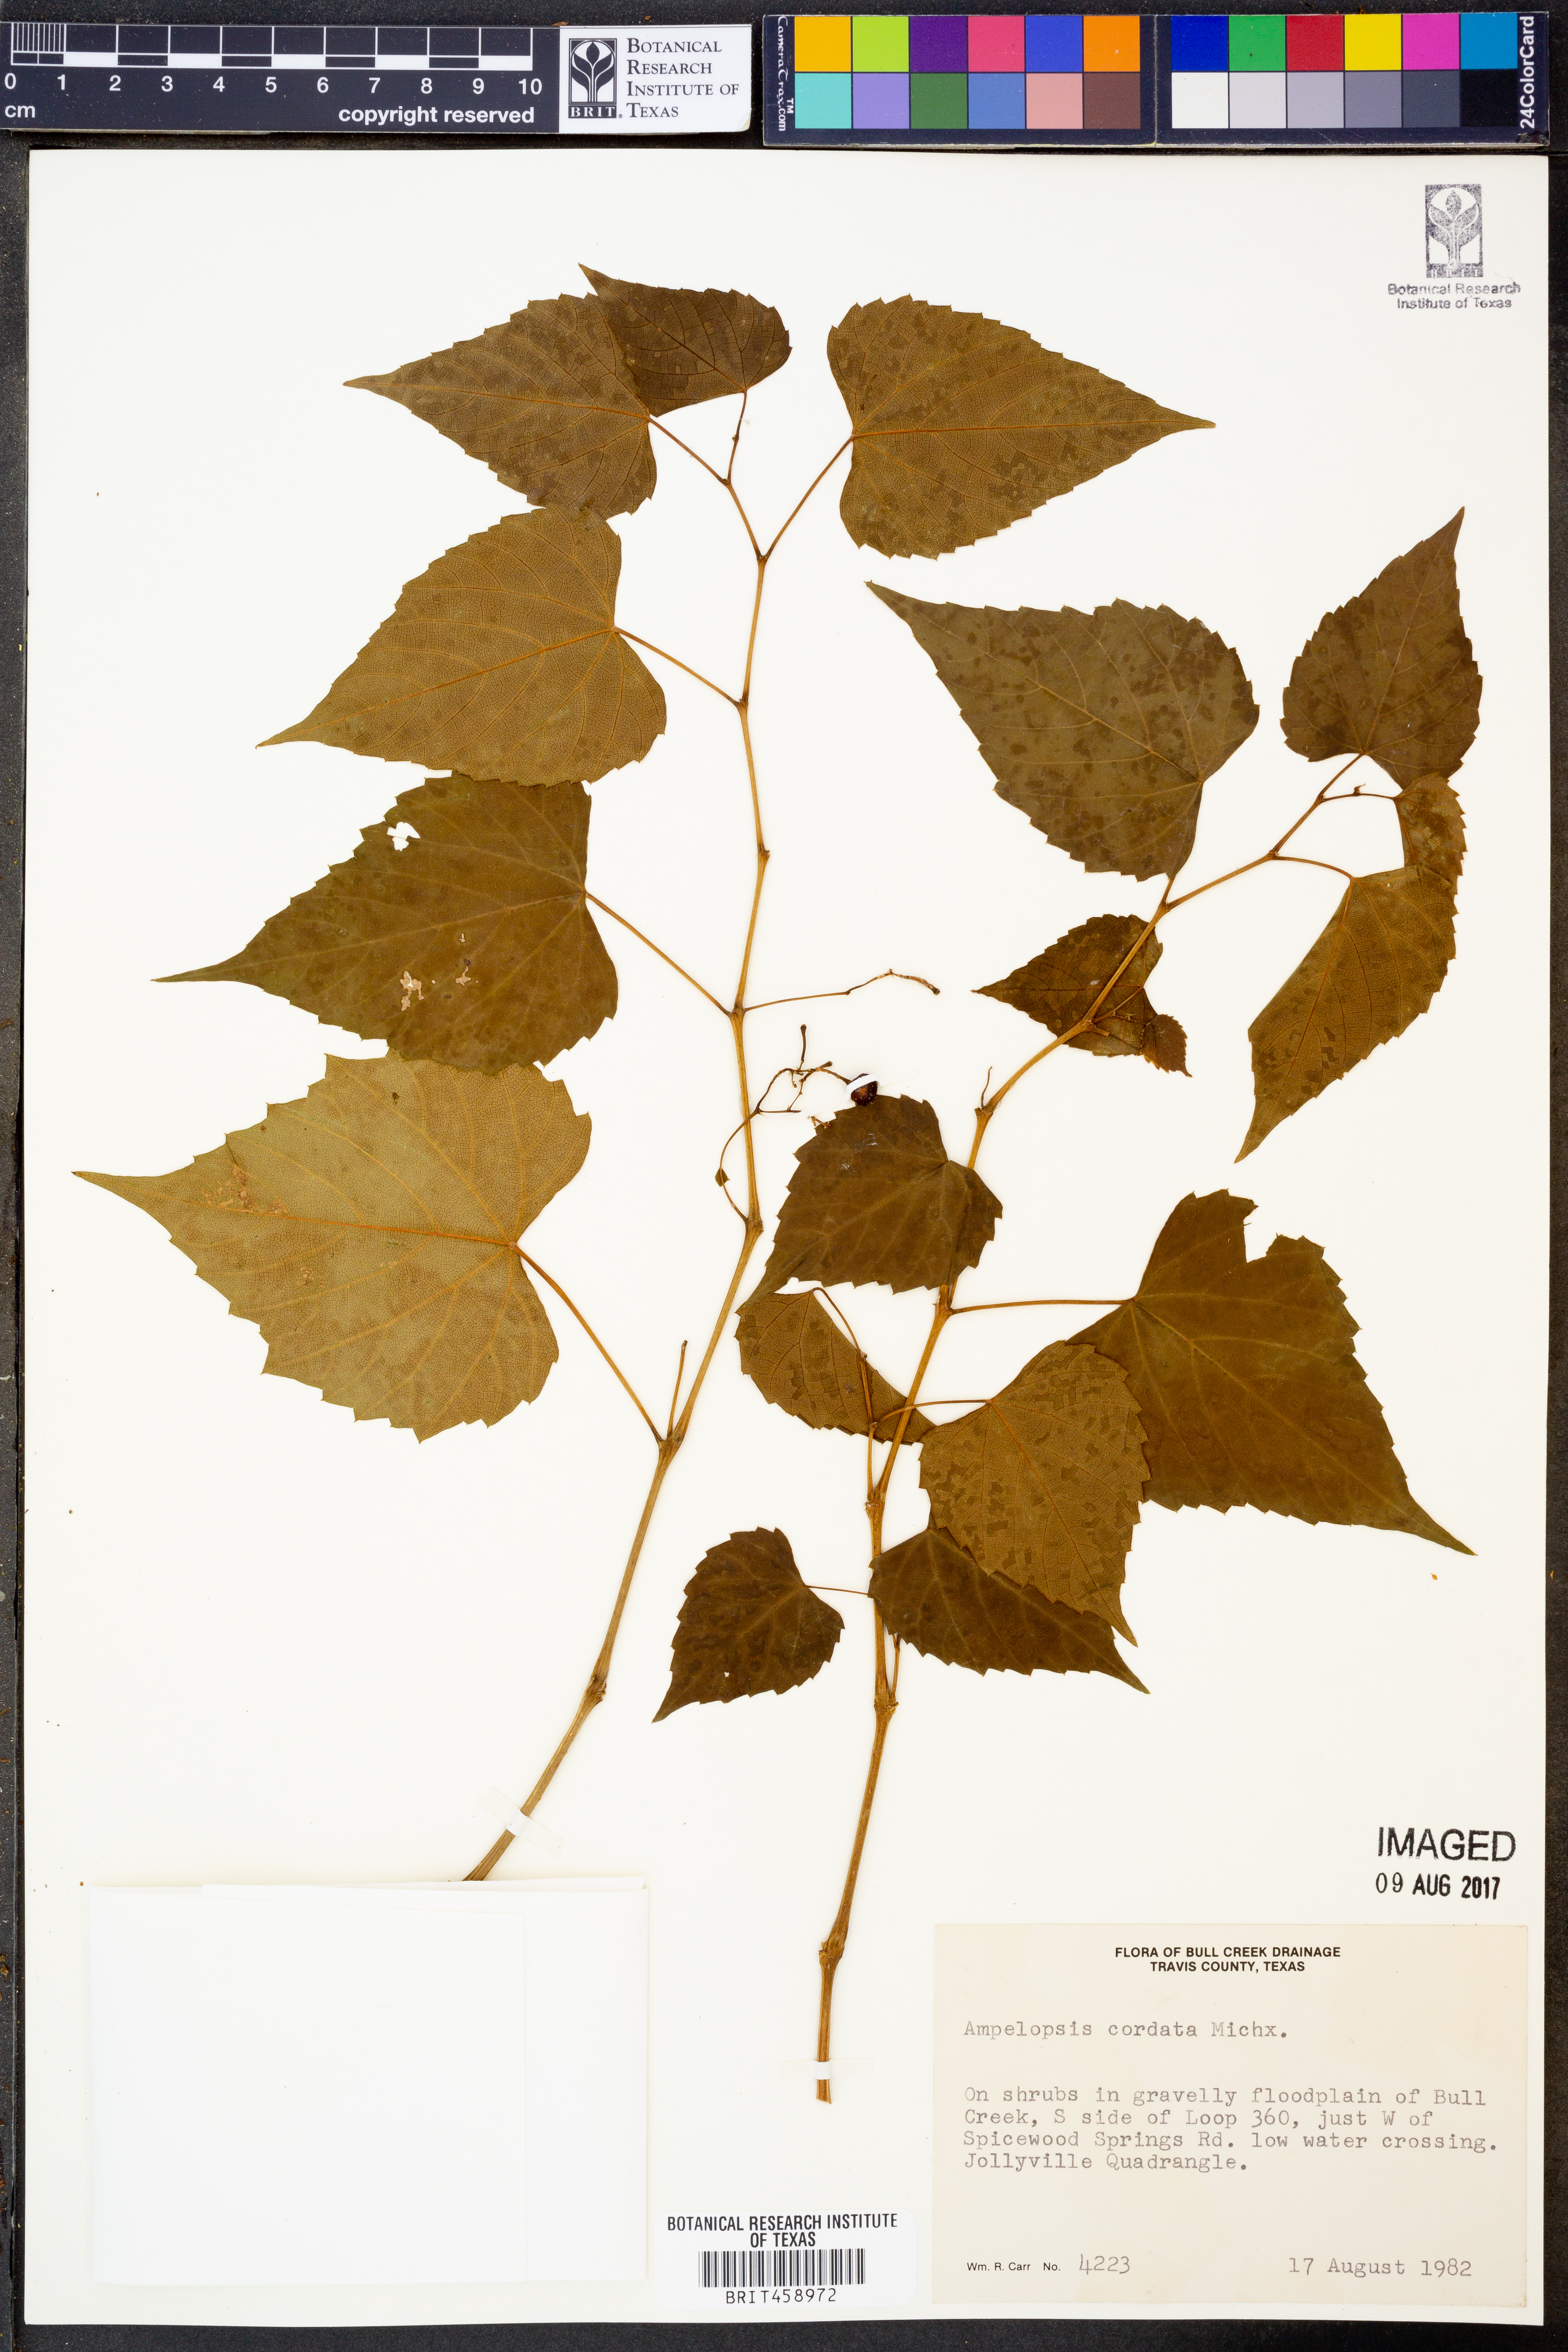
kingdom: Plantae
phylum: Tracheophyta
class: Magnoliopsida
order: Vitales
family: Vitaceae
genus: Ampelopsis
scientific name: Ampelopsis cordata
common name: Heart-leaf ampelopsis
